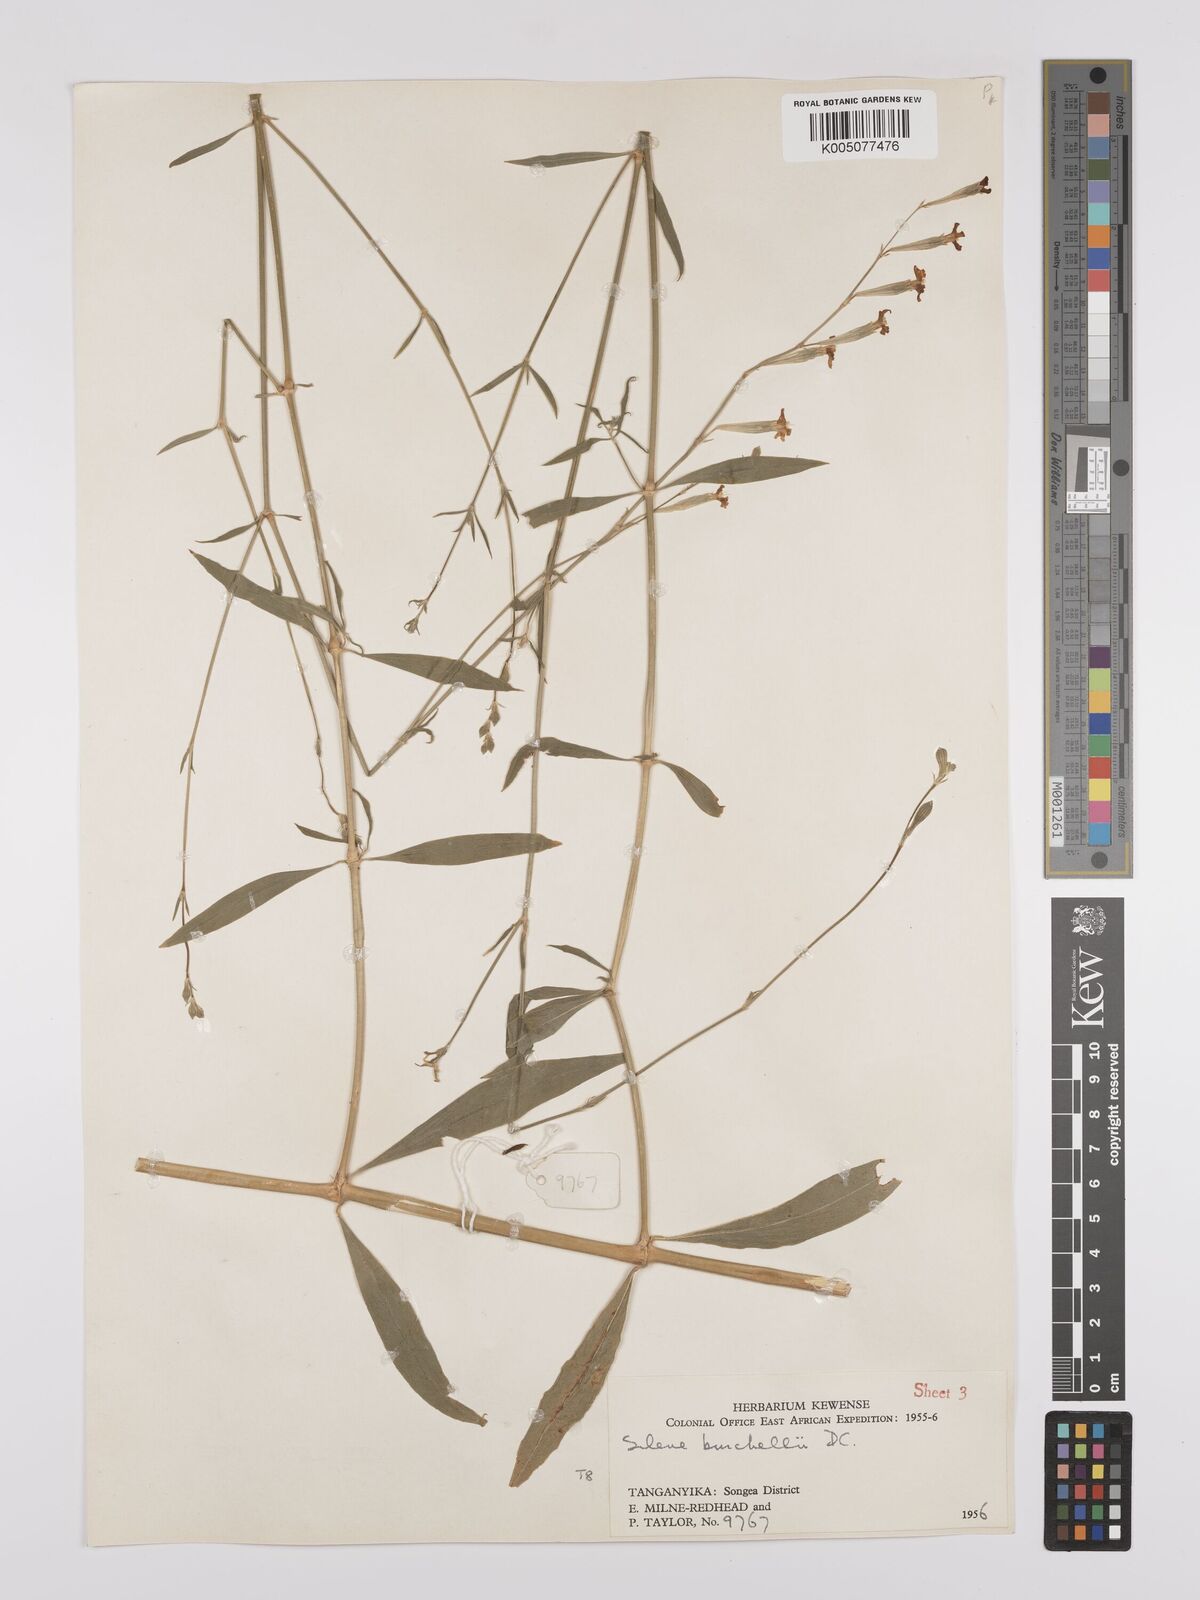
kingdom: Plantae
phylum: Tracheophyta
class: Magnoliopsida
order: Caryophyllales
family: Caryophyllaceae
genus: Silene
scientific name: Silene burchellii
